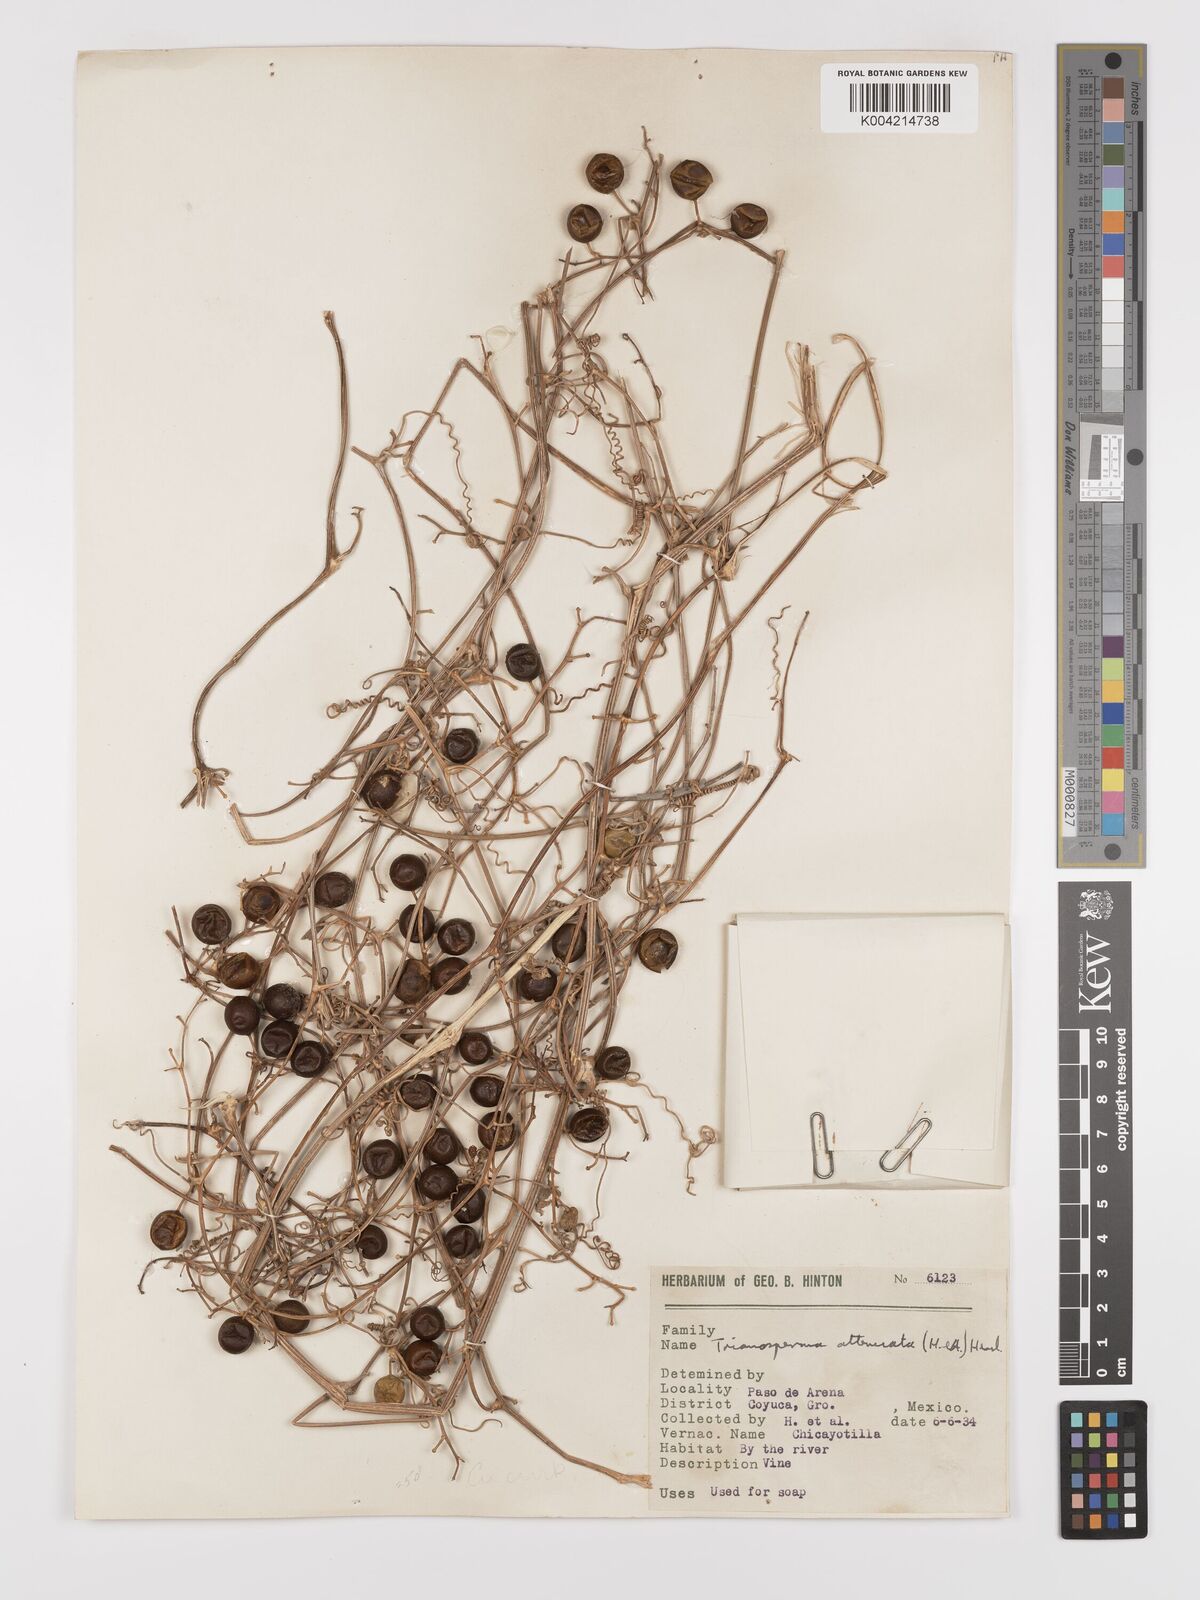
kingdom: Plantae
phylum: Tracheophyta
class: Magnoliopsida
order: Cucurbitales
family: Cucurbitaceae
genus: Cayaponia
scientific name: Cayaponia attenuata
